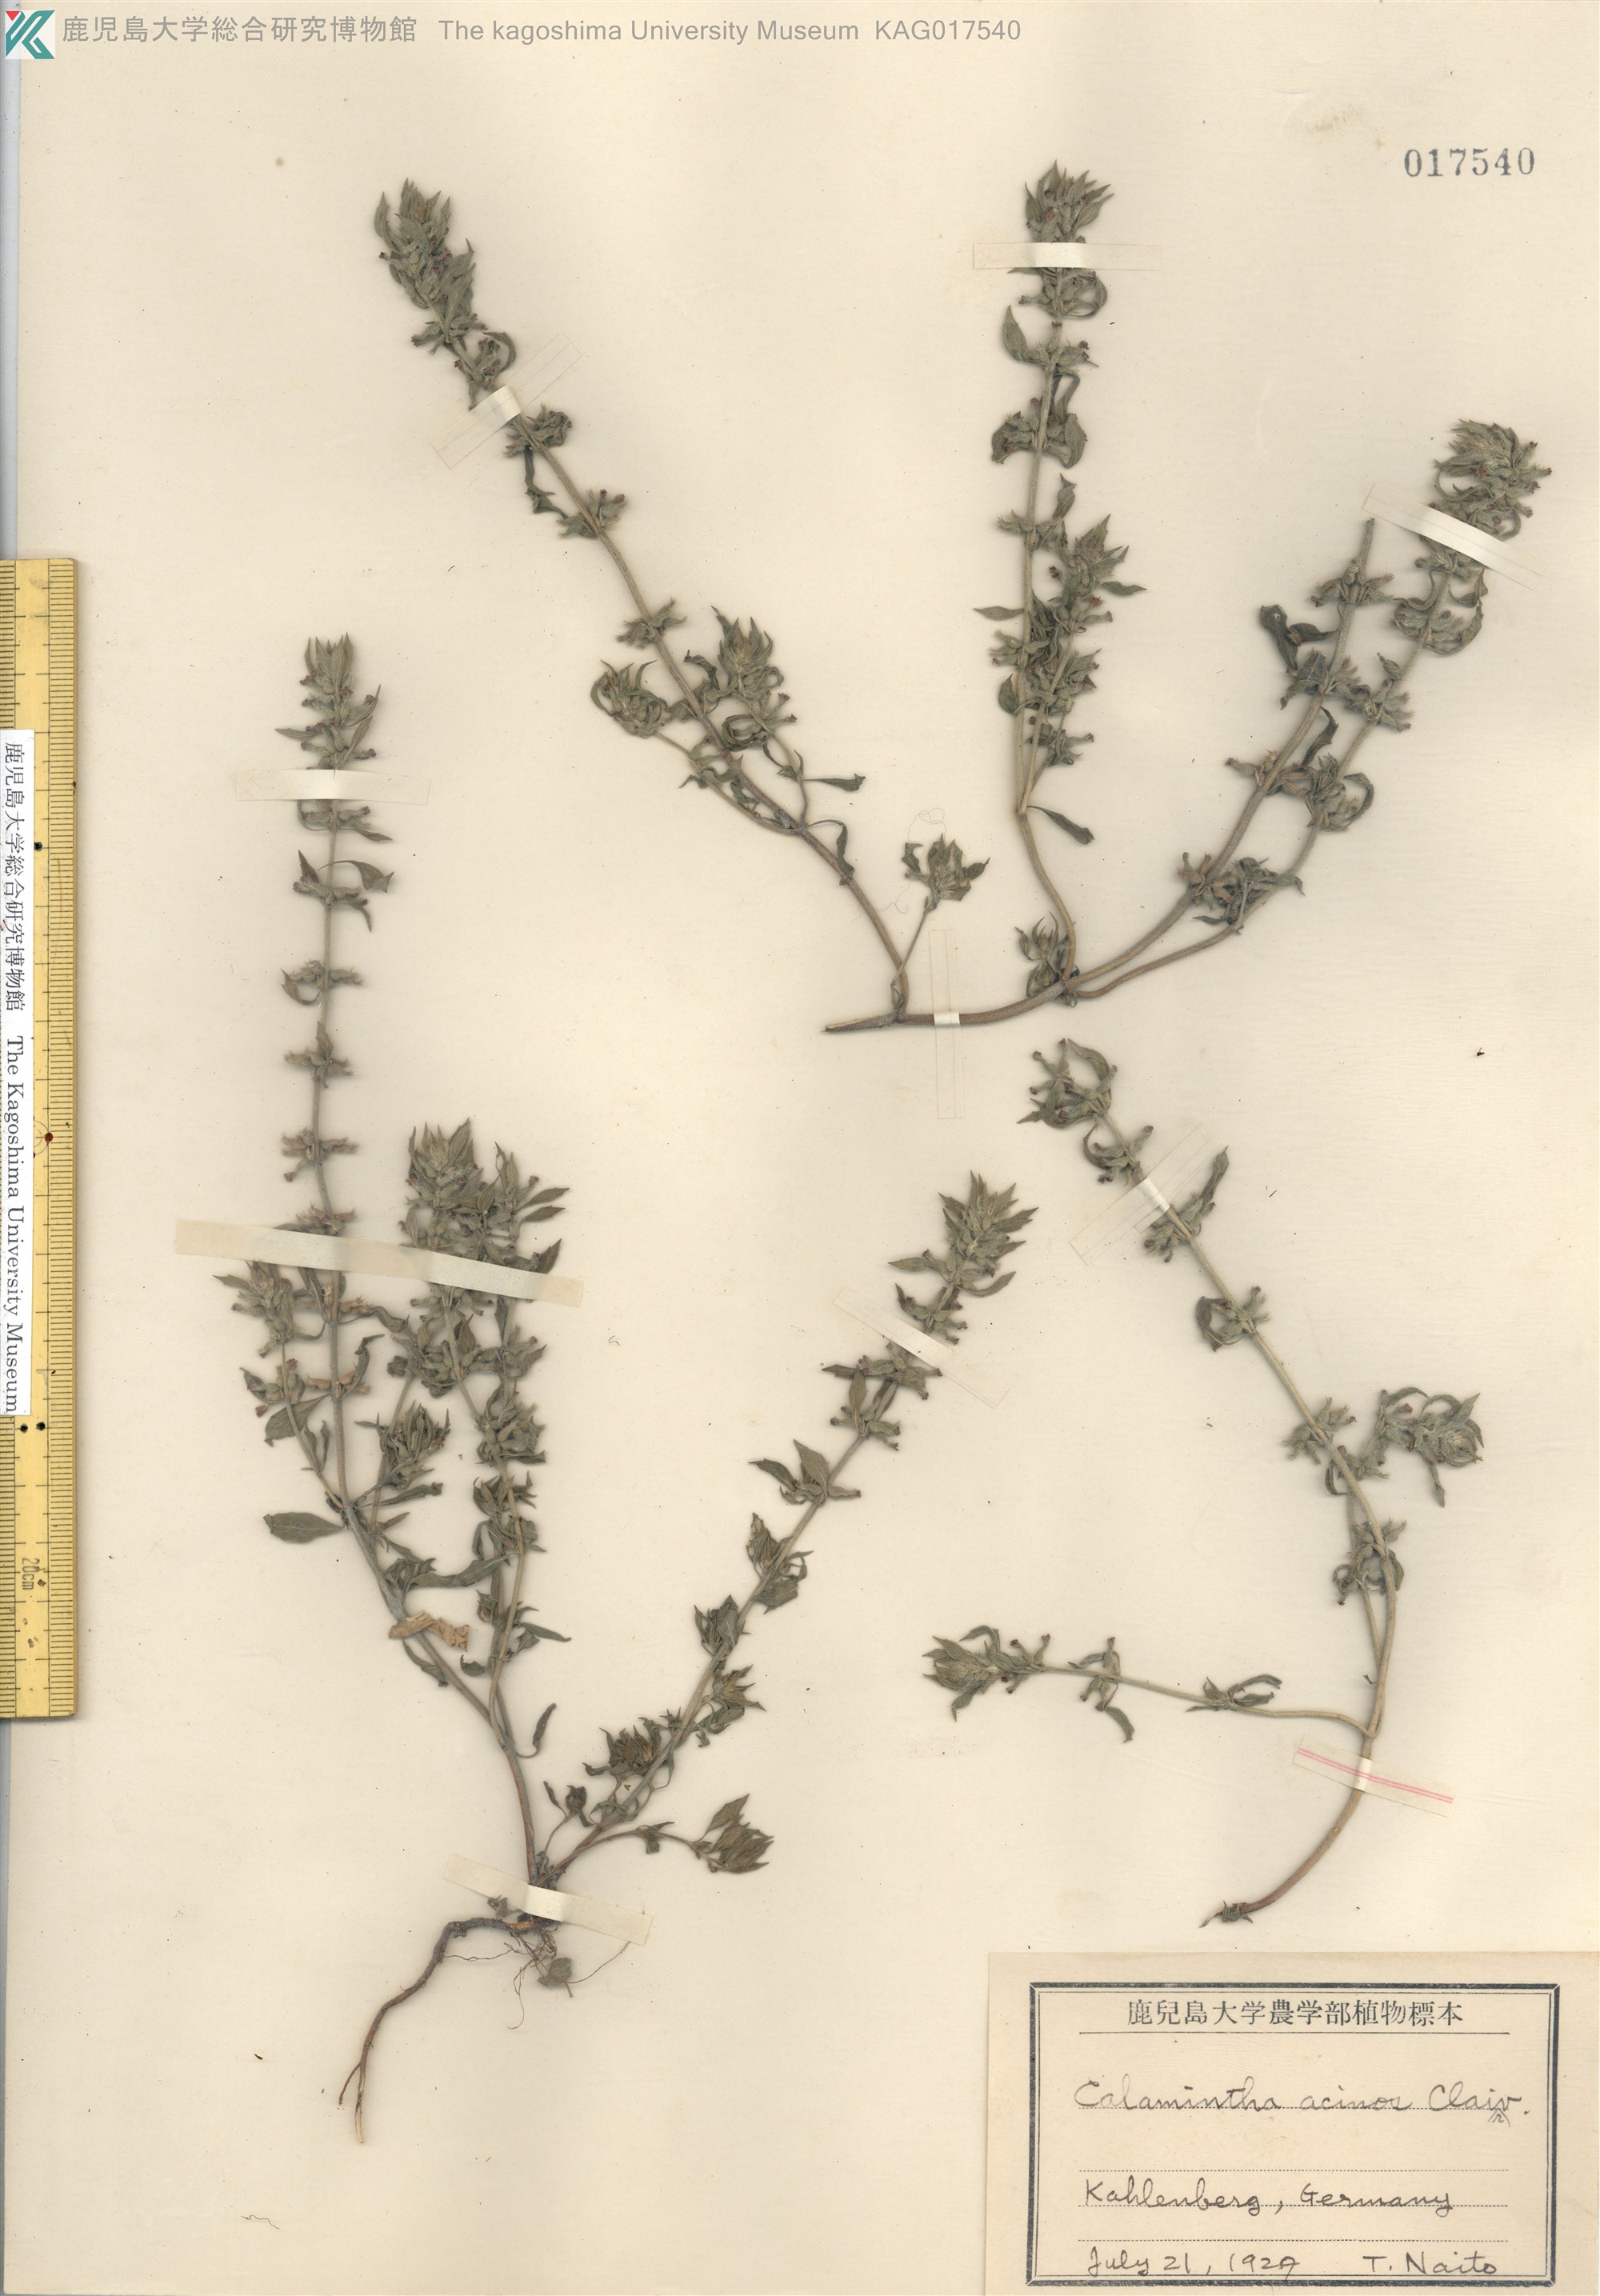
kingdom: Plantae
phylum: Tracheophyta
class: Magnoliopsida
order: Lamiales
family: Lamiaceae
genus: Clinopodium
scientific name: Clinopodium acinos
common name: Basil thyme
